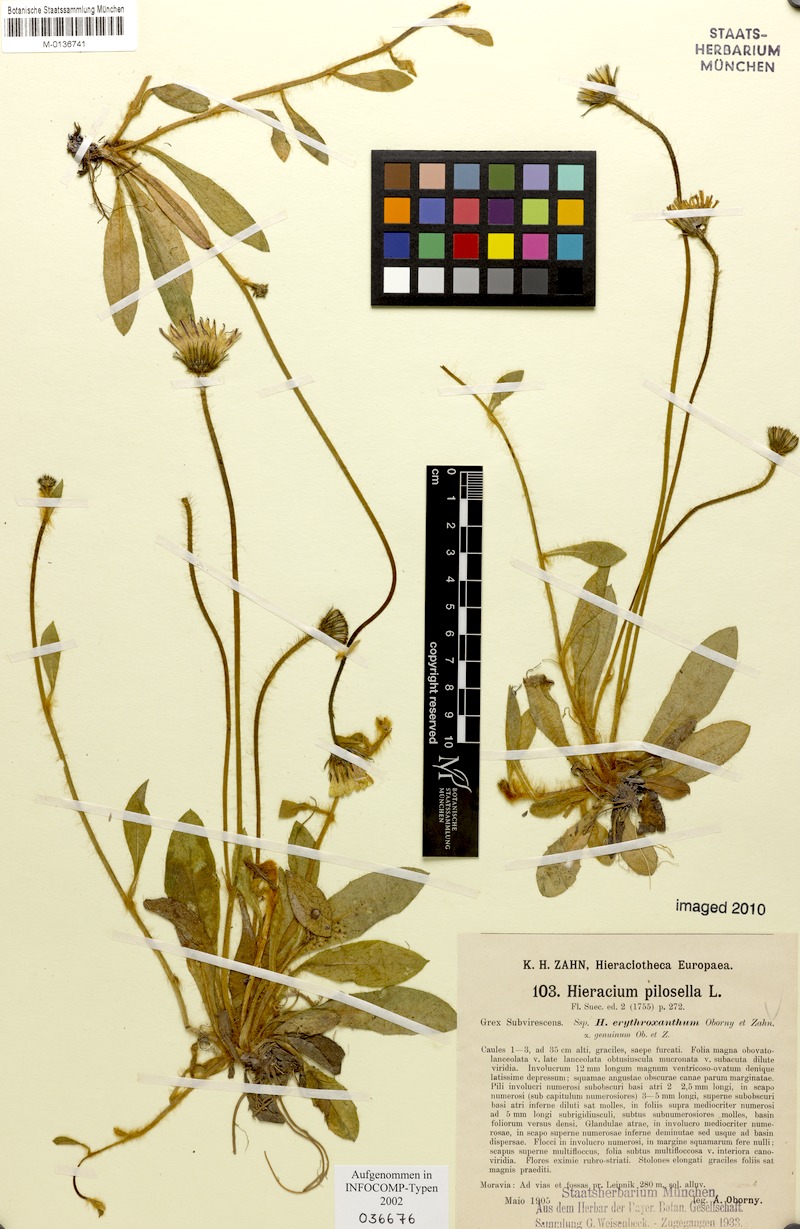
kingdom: Plantae
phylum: Tracheophyta
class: Magnoliopsida
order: Asterales
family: Asteraceae
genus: Pilosella
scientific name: Pilosella officinarum
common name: Mouse-ear hawkweed
